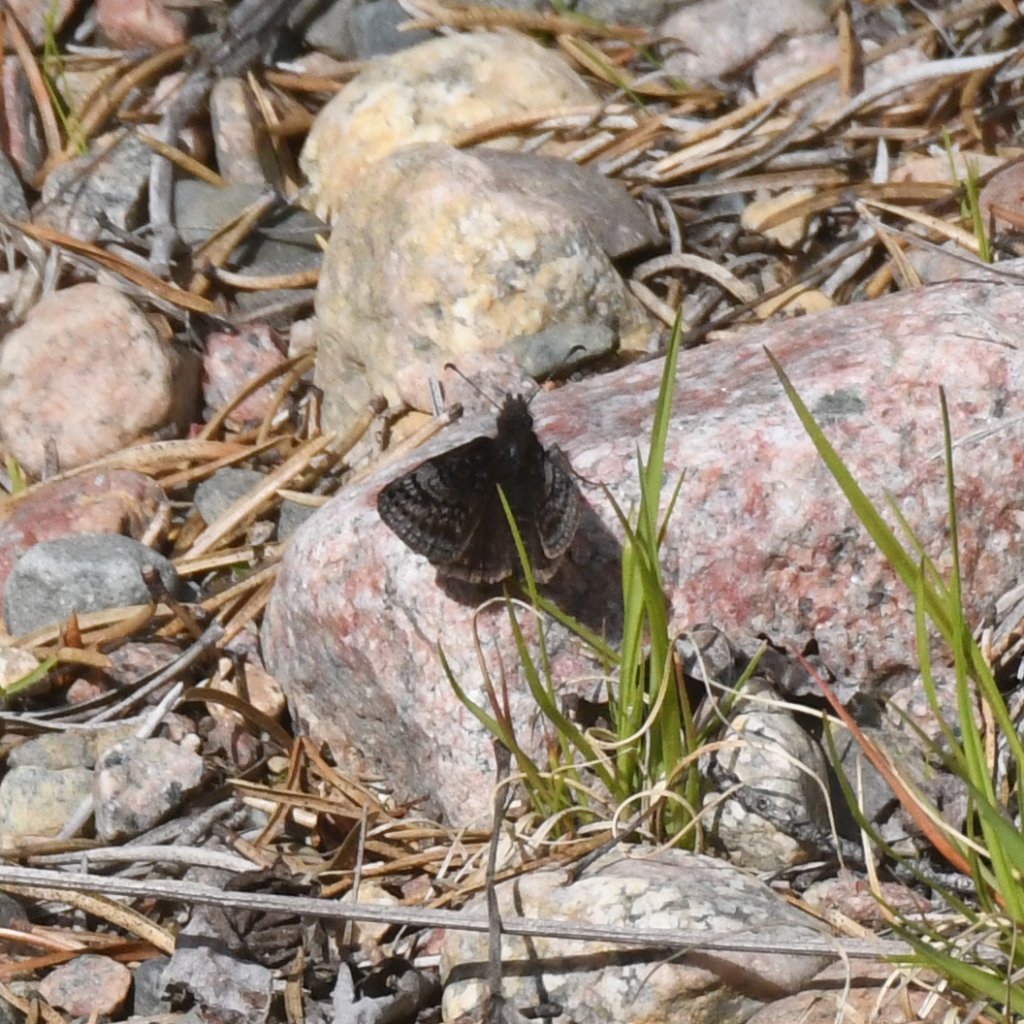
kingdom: Animalia
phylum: Arthropoda
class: Insecta
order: Lepidoptera
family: Hesperiidae
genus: Erynnis
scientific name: Erynnis icelus
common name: Dreamy Duskywing
